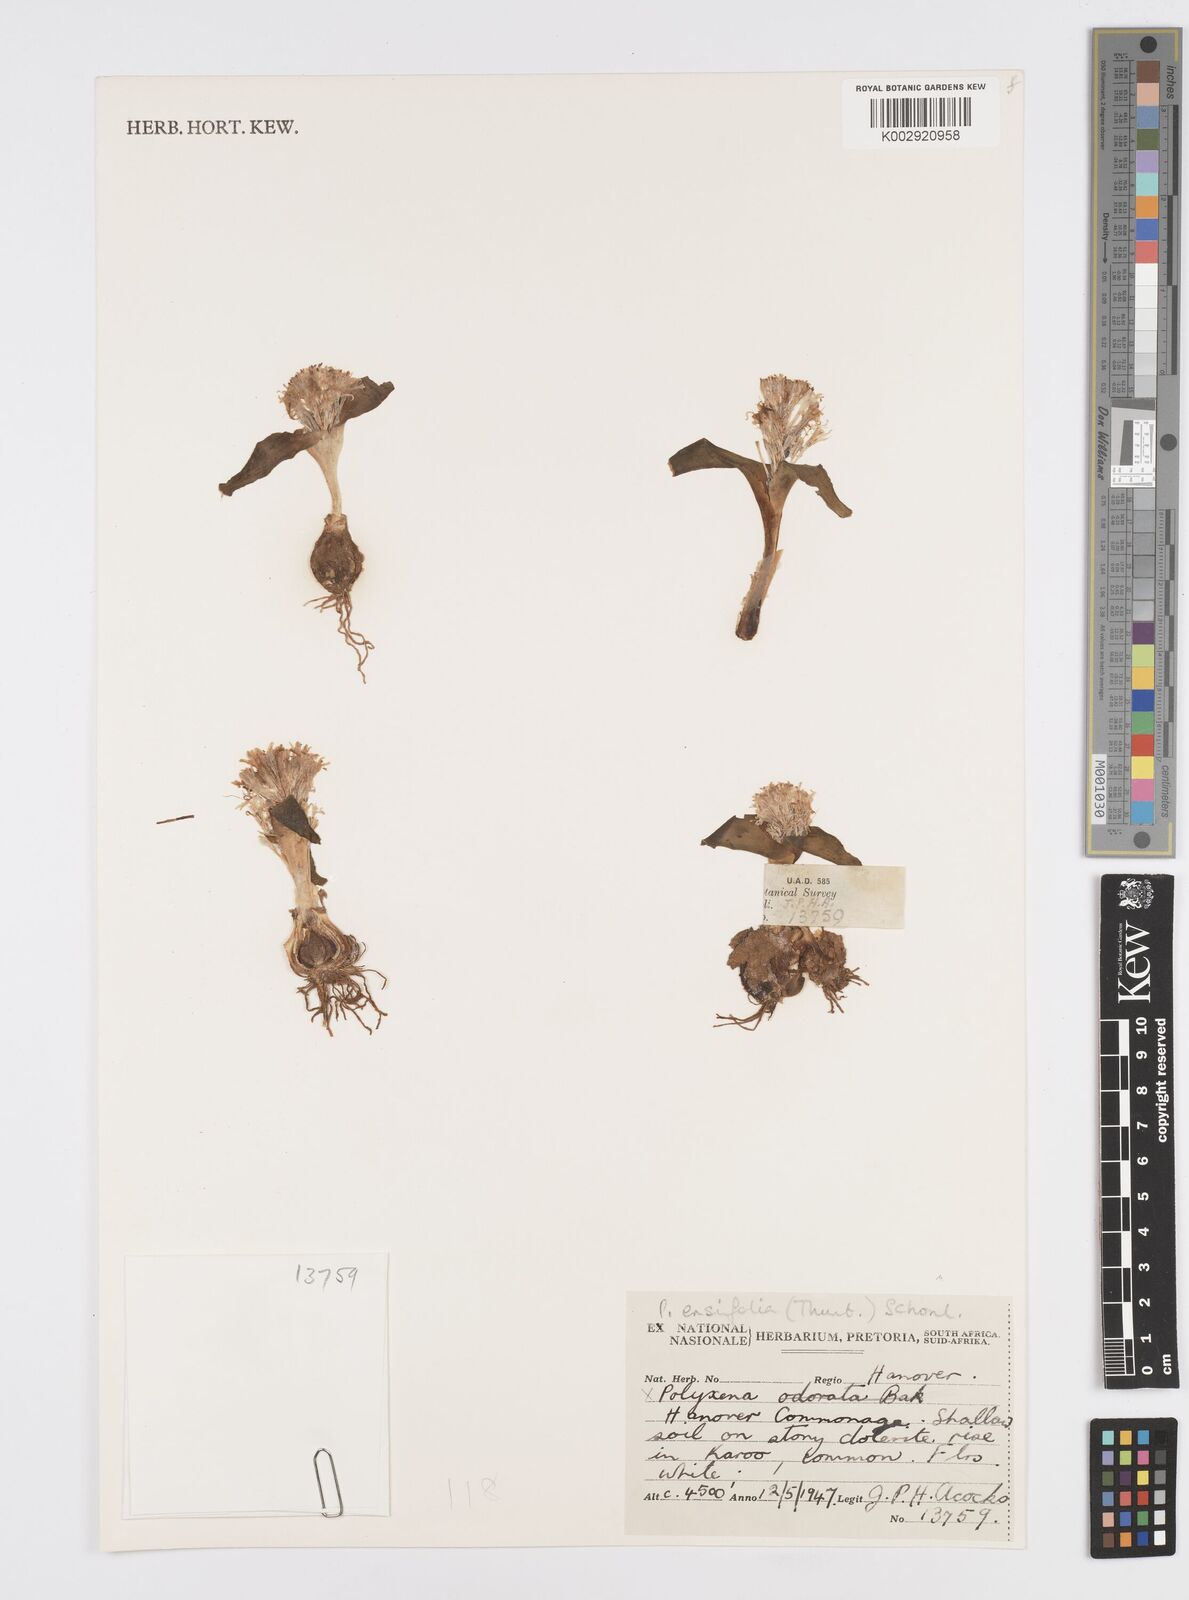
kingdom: Plantae
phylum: Tracheophyta
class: Liliopsida
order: Asparagales
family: Asparagaceae
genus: Lachenalia
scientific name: Lachenalia ensifolia
